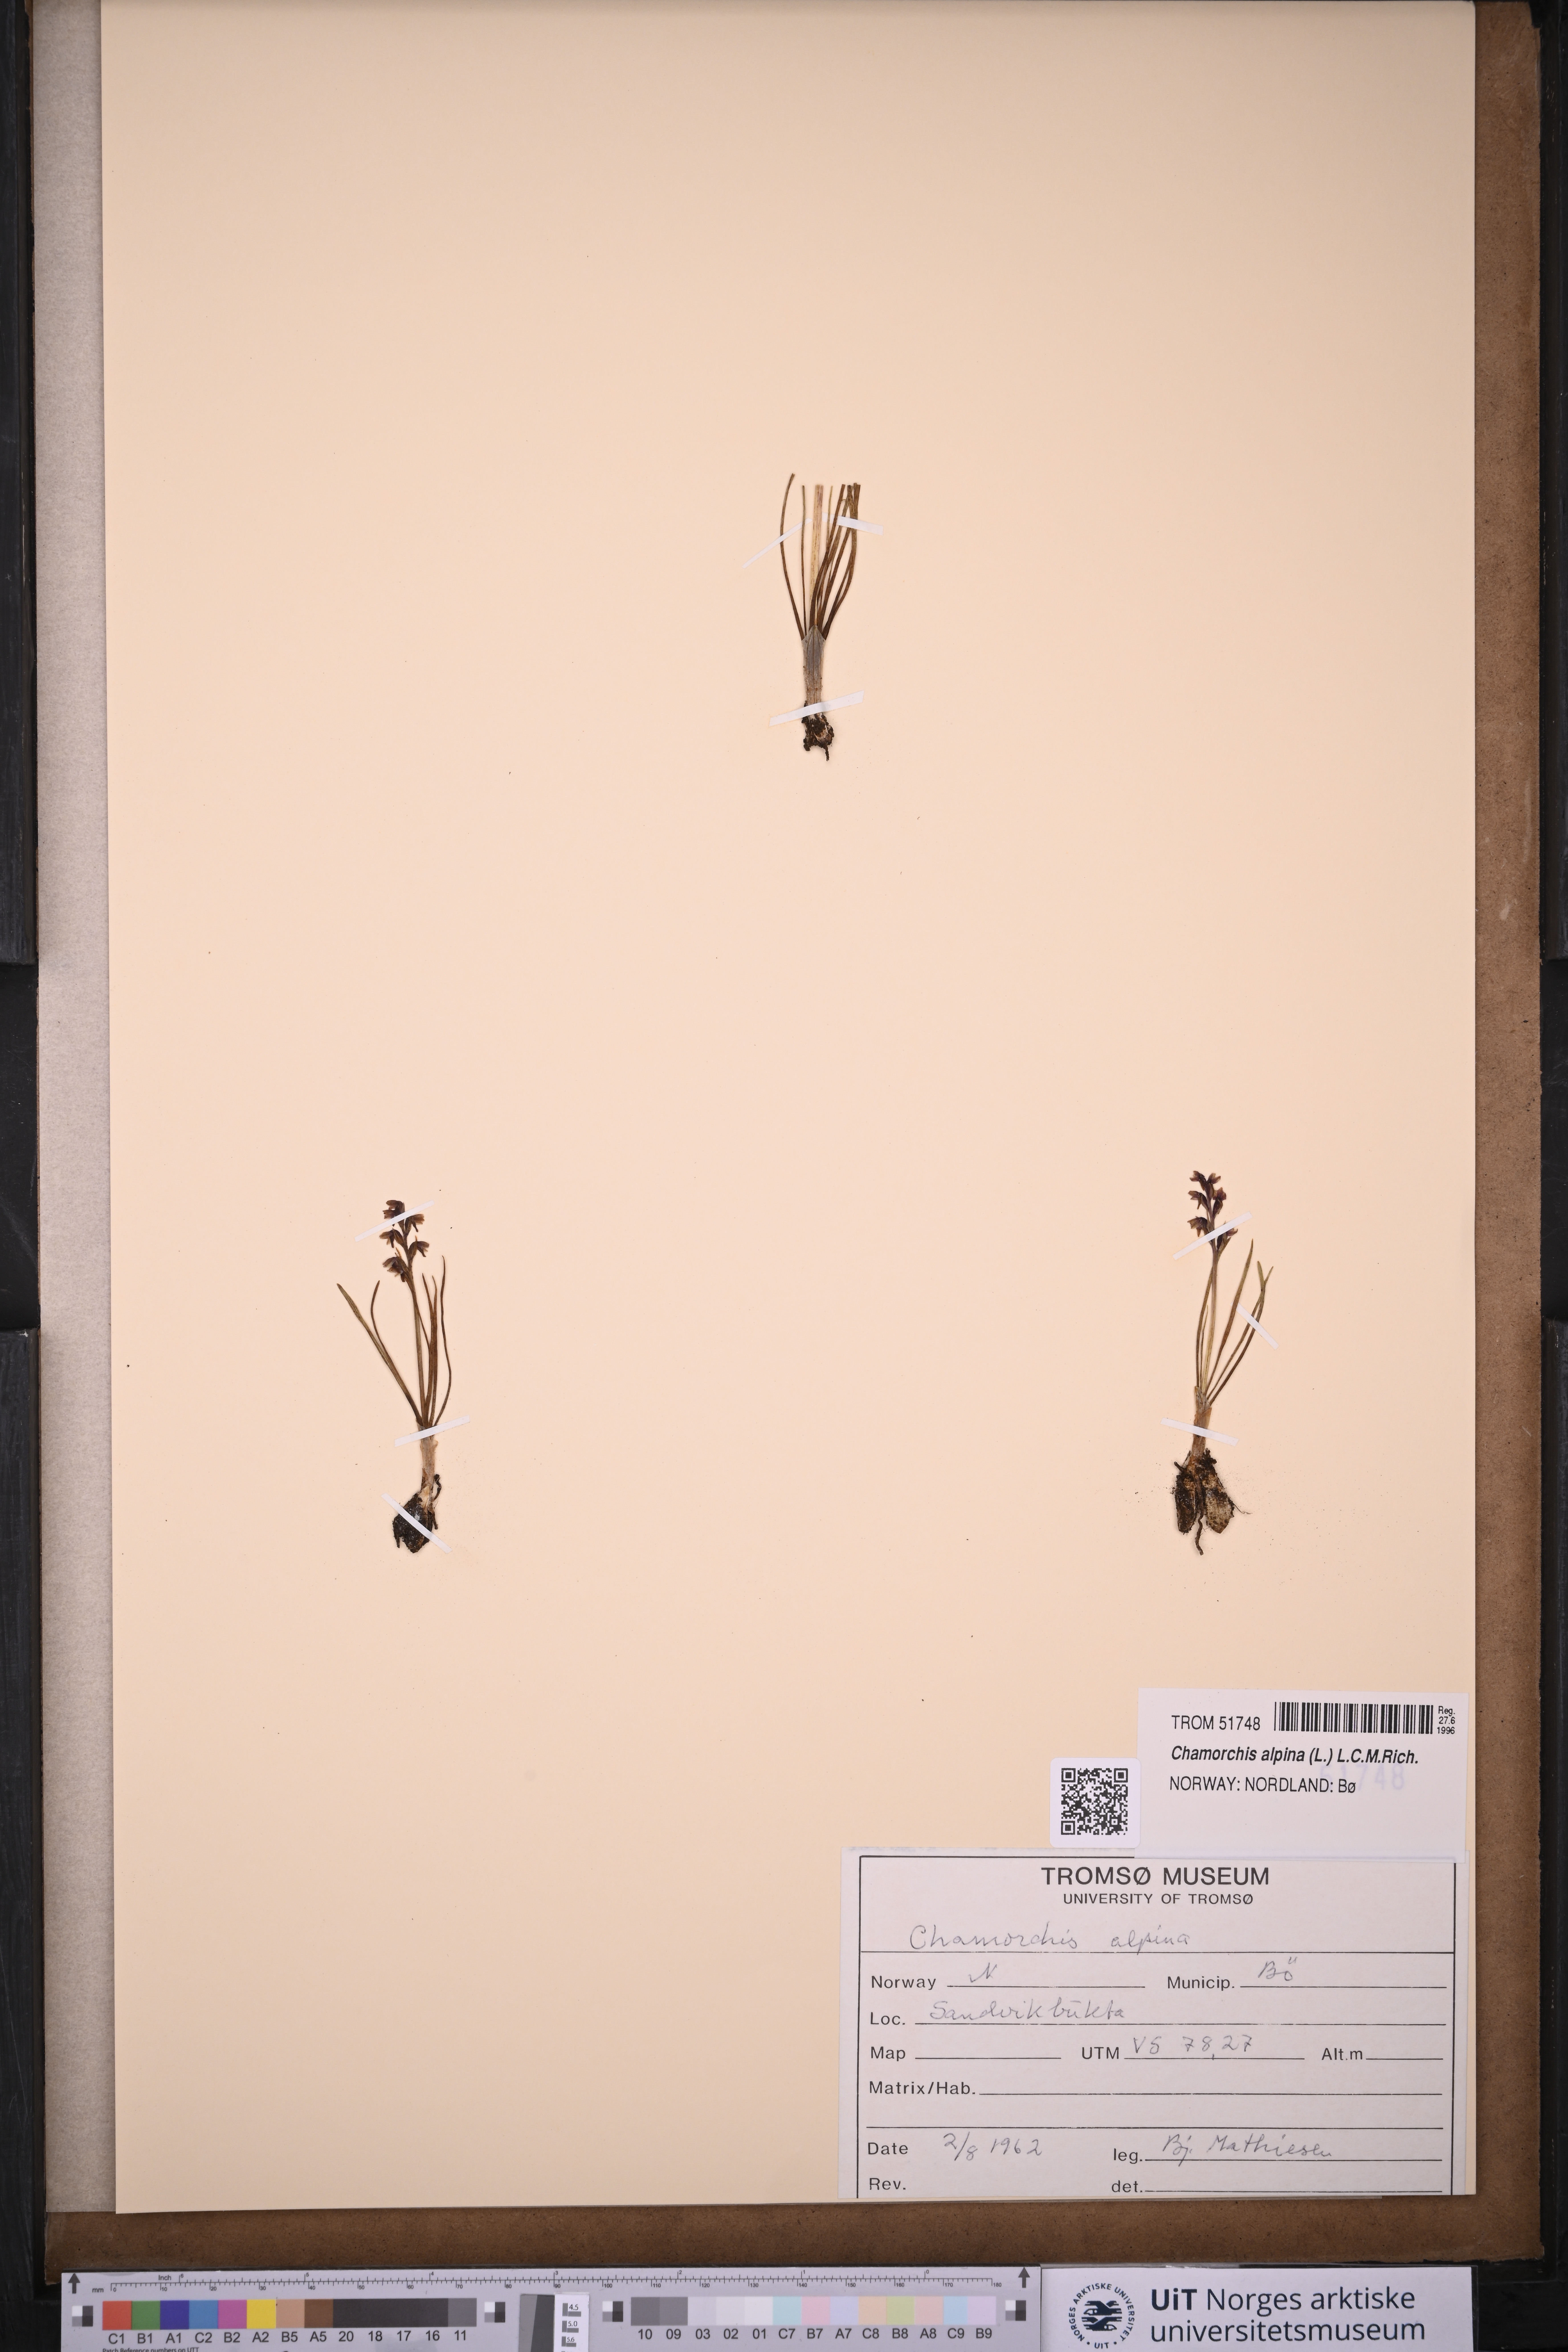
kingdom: Plantae
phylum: Tracheophyta
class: Liliopsida
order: Asparagales
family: Orchidaceae
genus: Chamorchis
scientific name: Chamorchis alpina
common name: Alpine chamorchis
